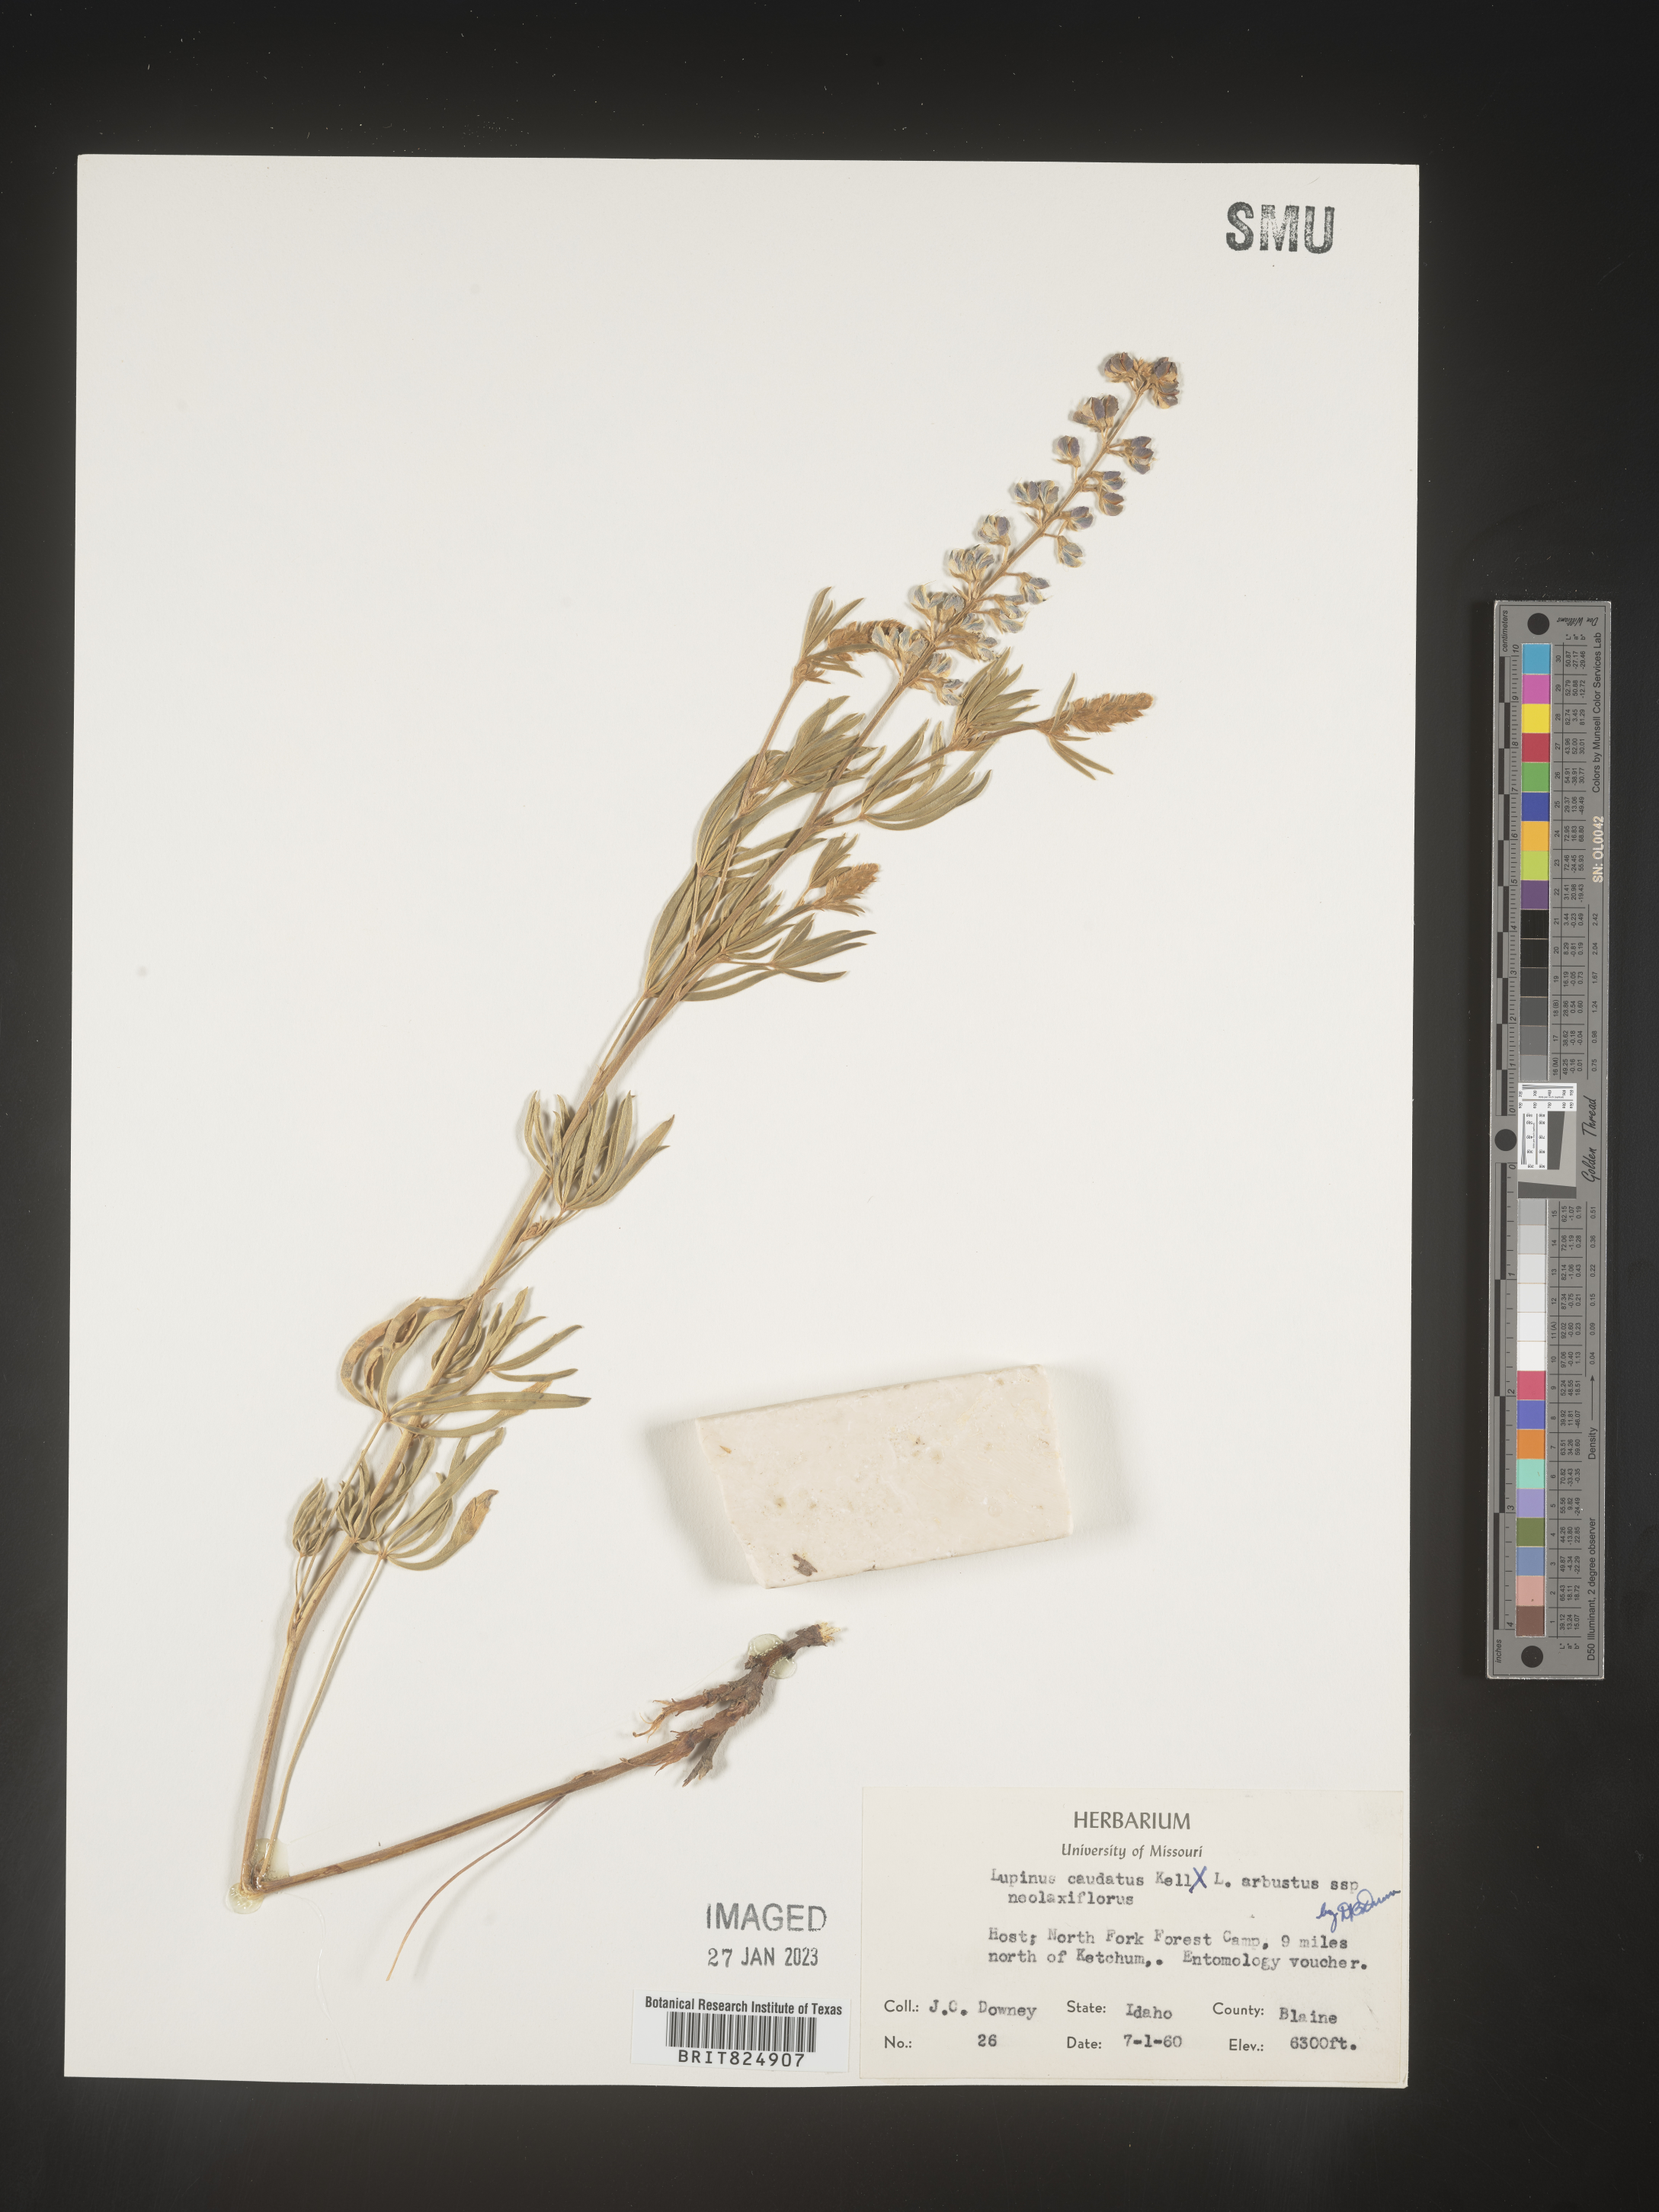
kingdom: Plantae
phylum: Tracheophyta
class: Magnoliopsida
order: Fabales
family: Fabaceae
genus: Lupinus
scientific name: Lupinus caudatus
